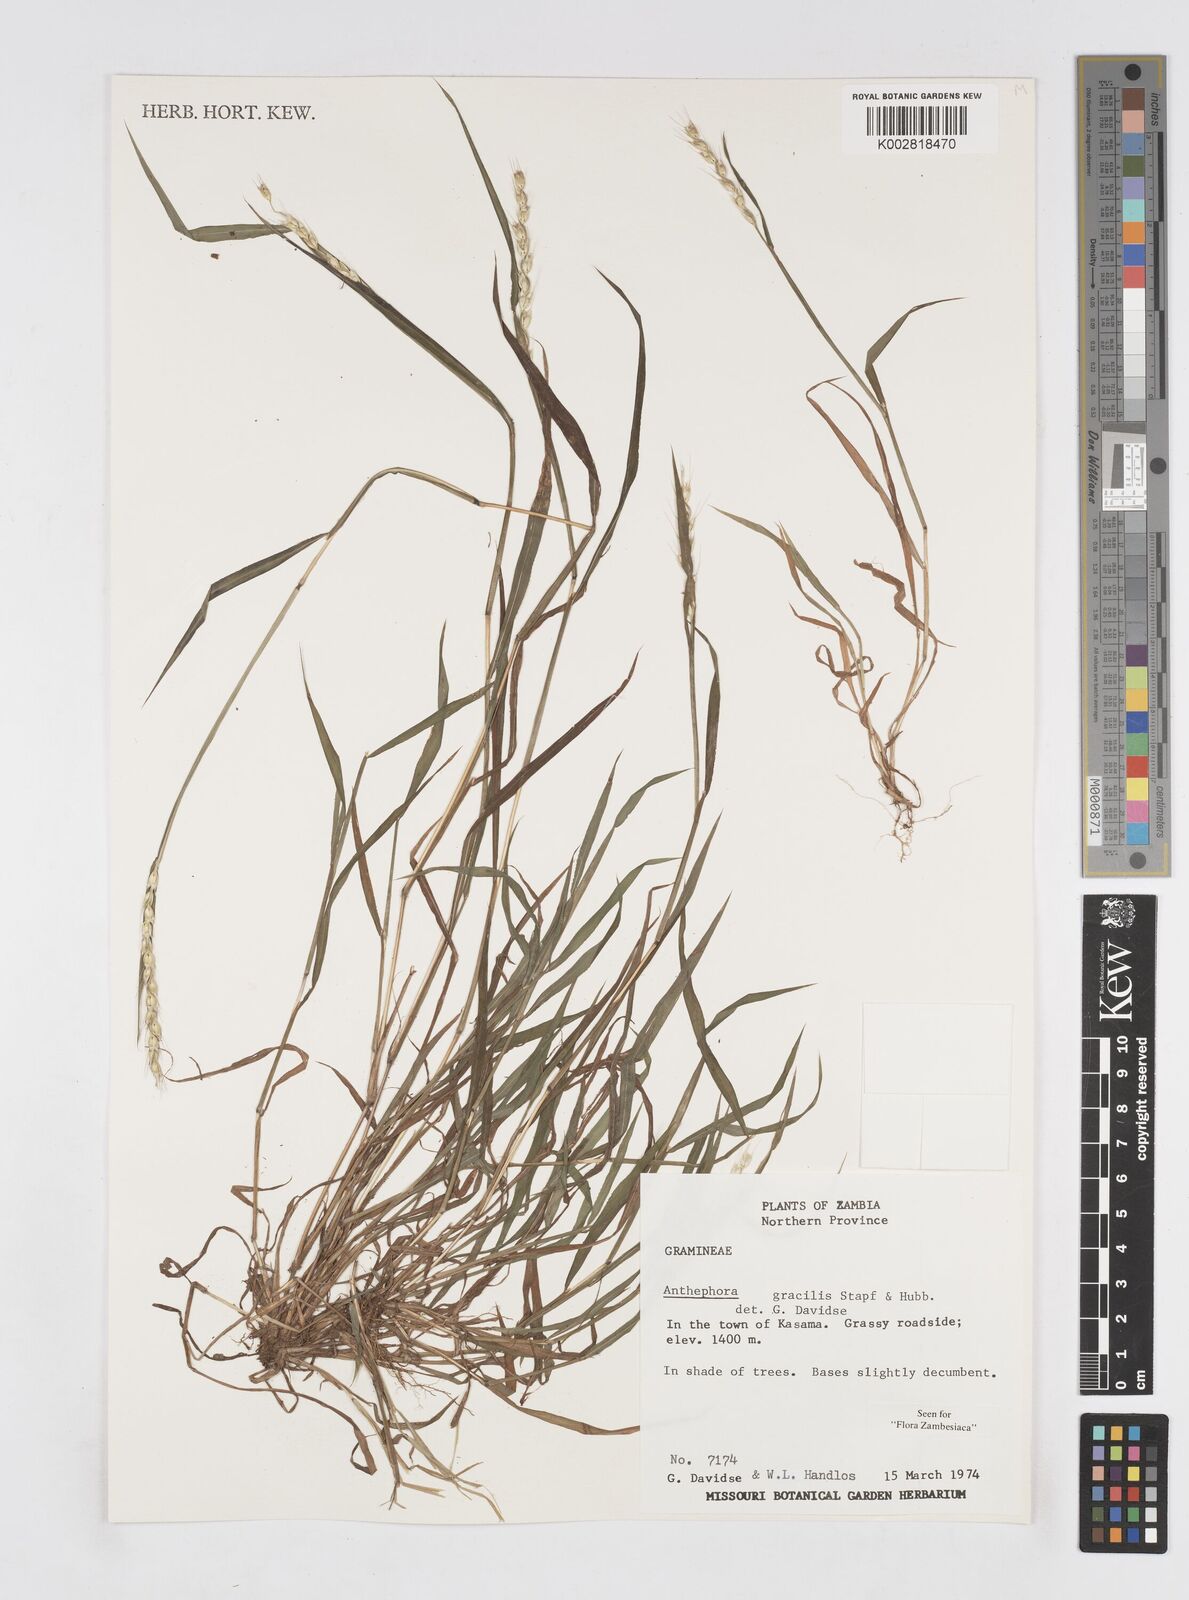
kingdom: Plantae
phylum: Tracheophyta
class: Liliopsida
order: Poales
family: Poaceae
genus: Anthephora
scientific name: Anthephora truncata
